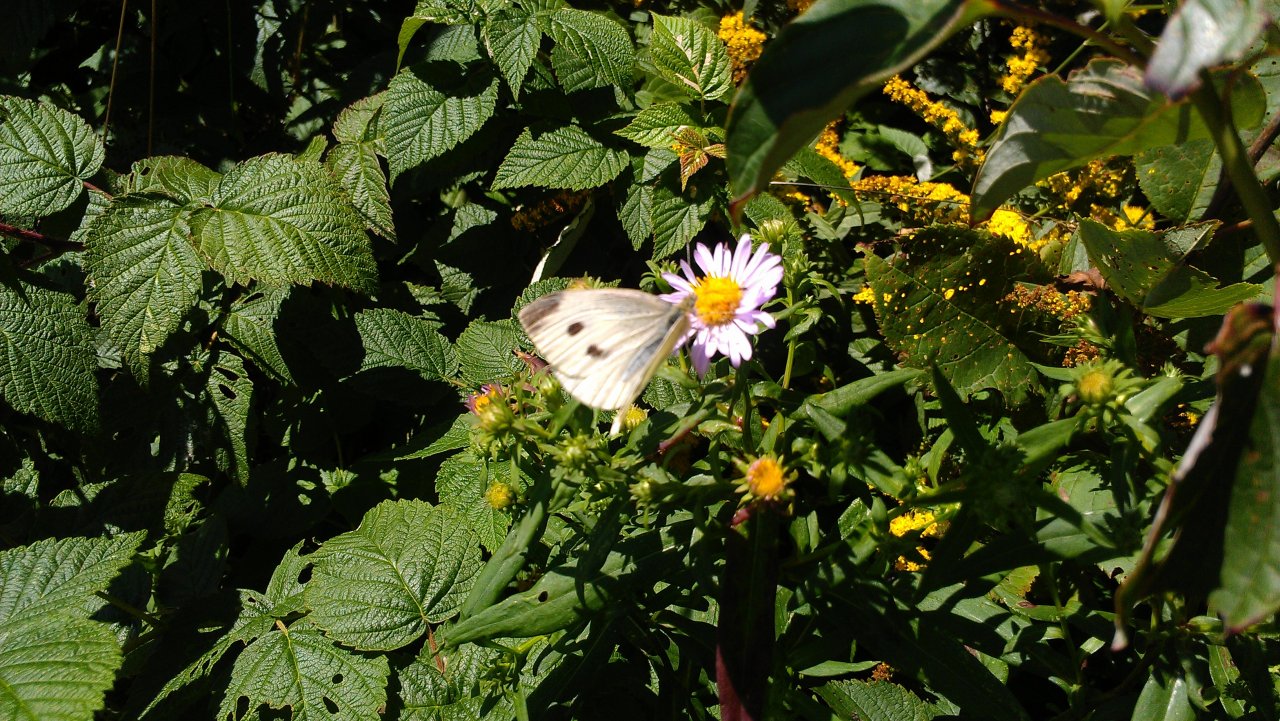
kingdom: Animalia
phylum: Arthropoda
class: Insecta
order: Lepidoptera
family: Pieridae
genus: Pieris
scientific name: Pieris rapae
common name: Cabbage White
